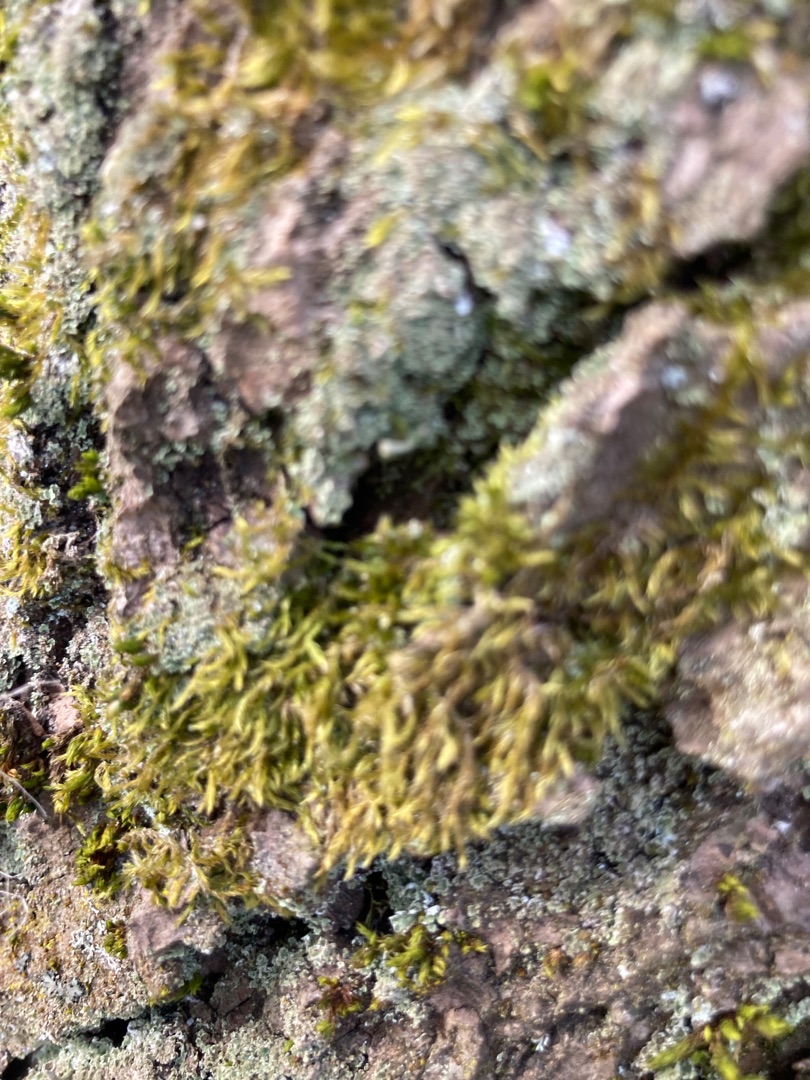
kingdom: Plantae
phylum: Bryophyta
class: Bryopsida
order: Hypnales
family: Hypnaceae
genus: Hypnum
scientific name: Hypnum
